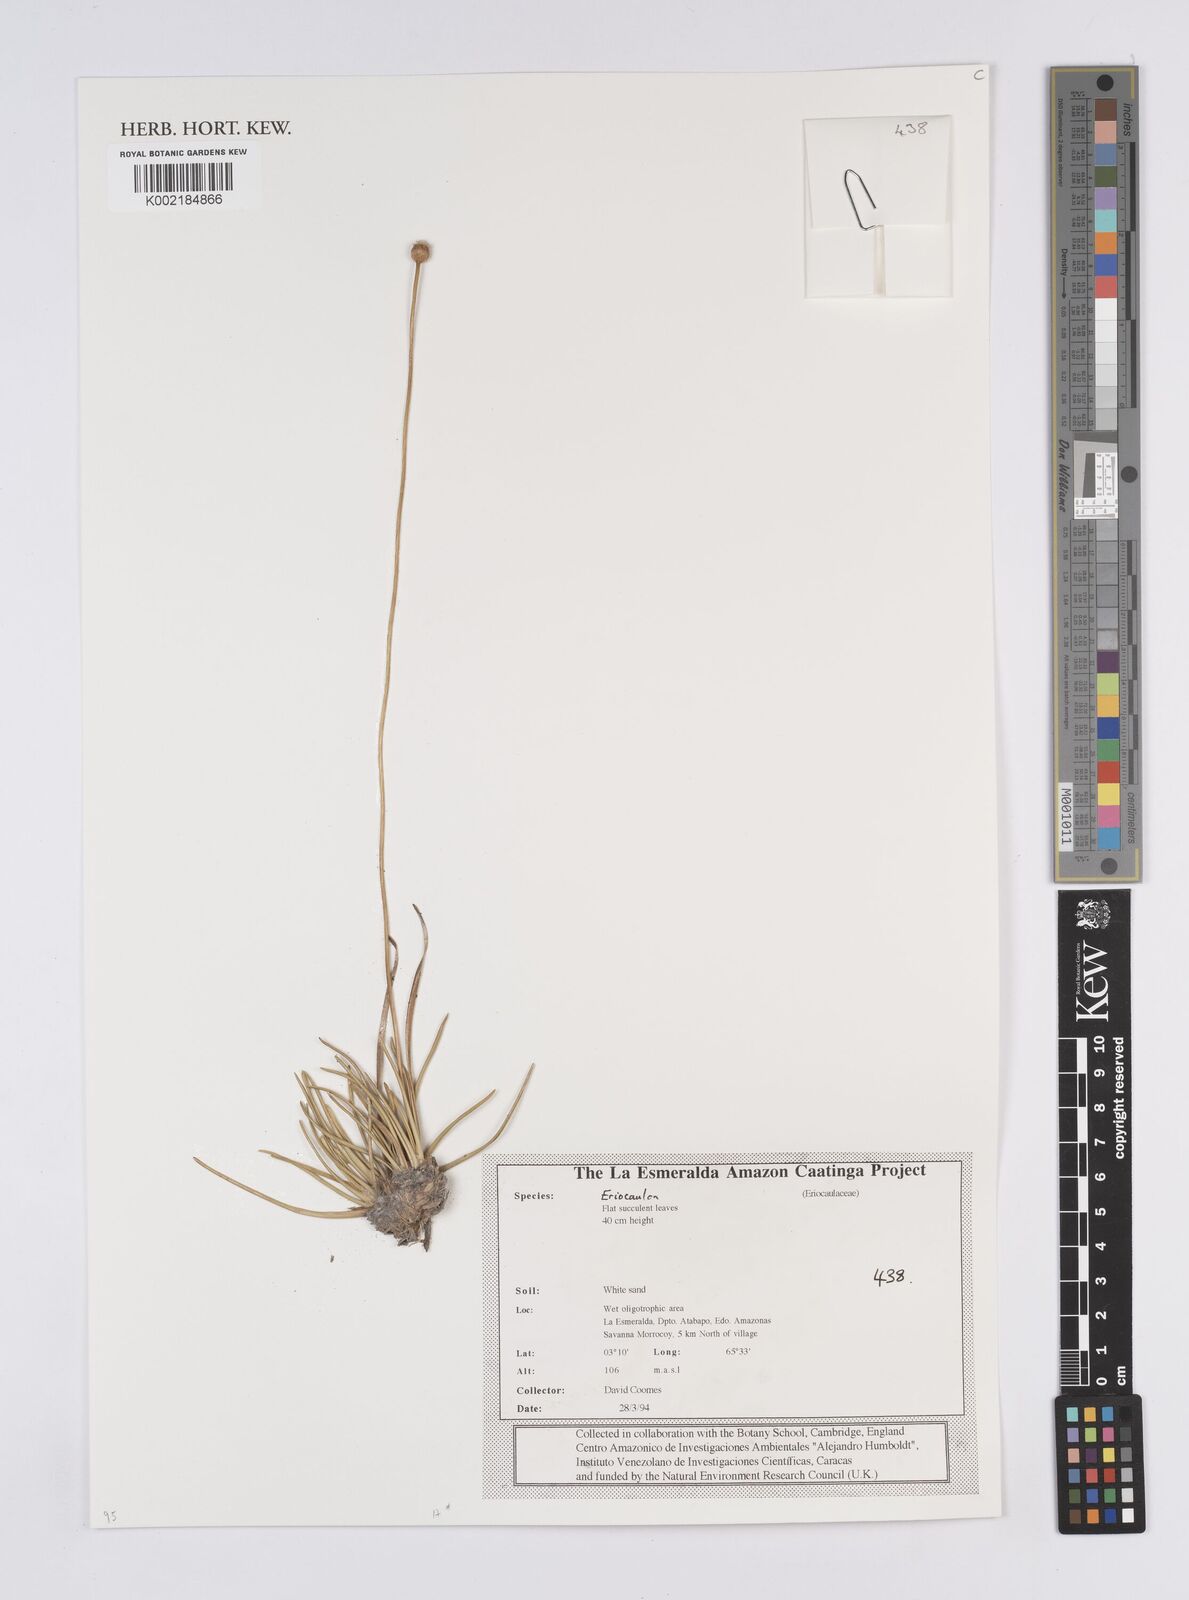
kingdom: Plantae
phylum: Tracheophyta
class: Liliopsida
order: Poales
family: Eriocaulaceae
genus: Eriocaulon
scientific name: Eriocaulon
